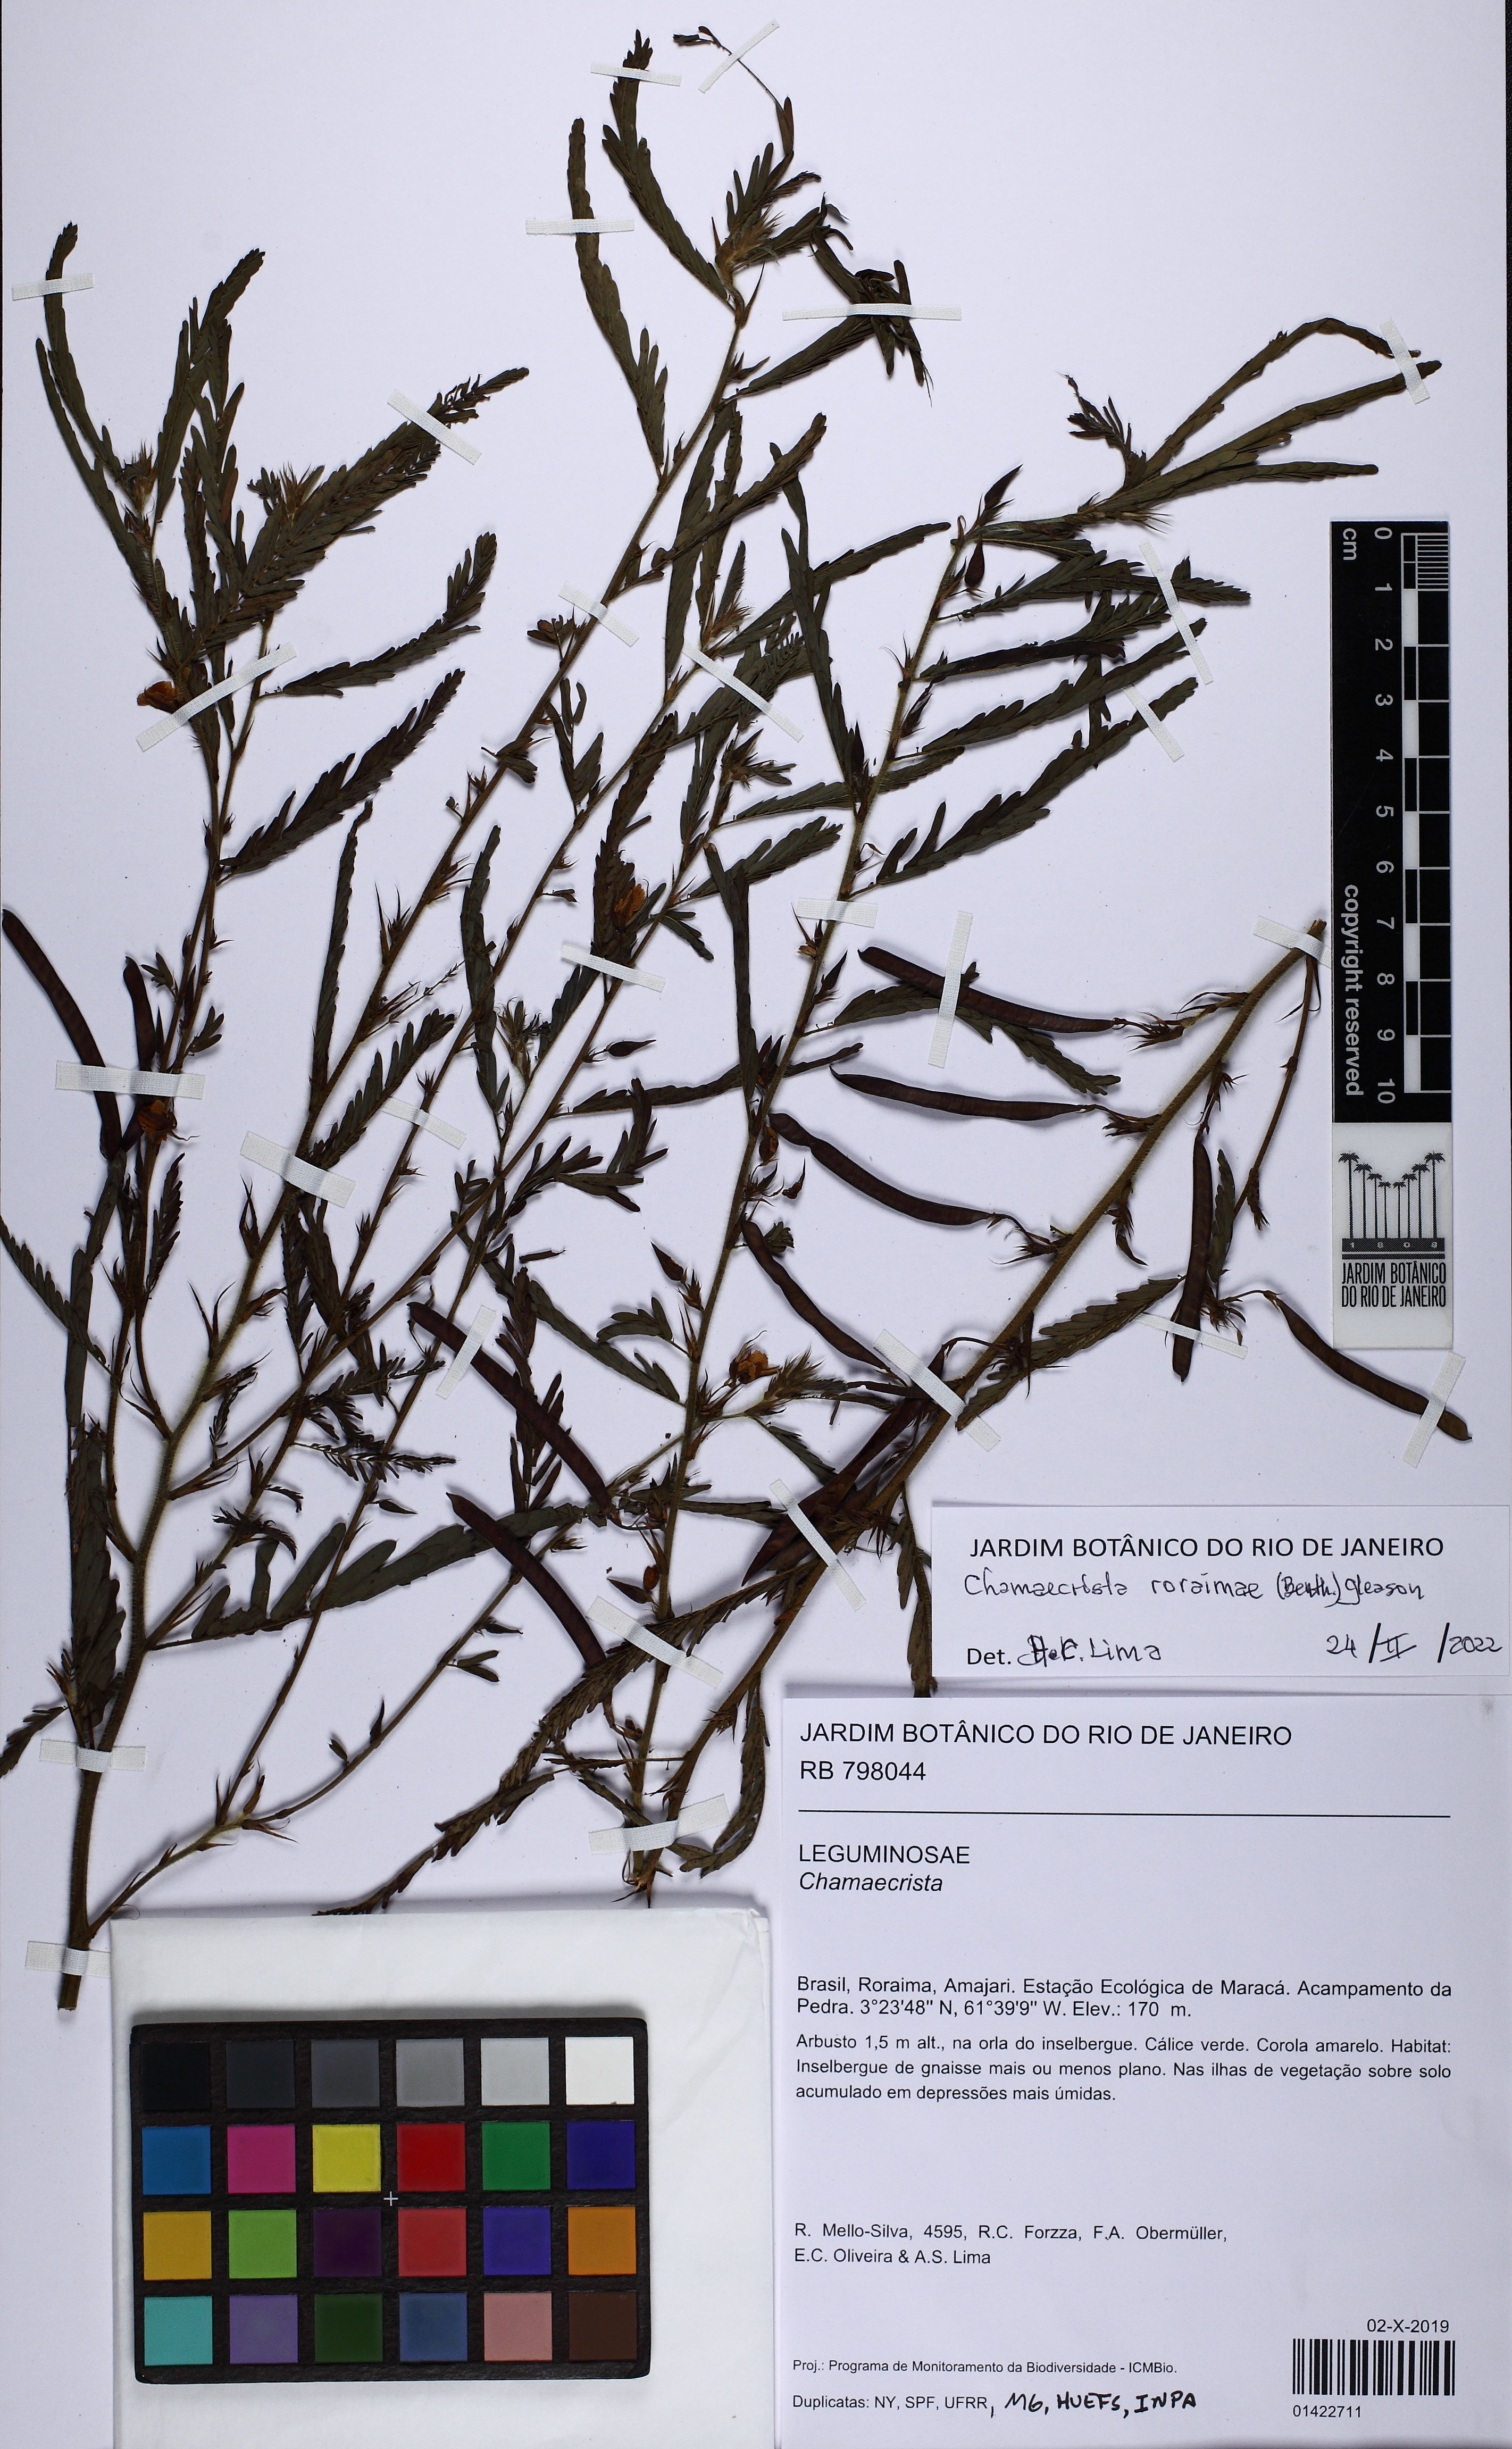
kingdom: Plantae
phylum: Tracheophyta
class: Magnoliopsida
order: Fabales
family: Fabaceae
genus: Chamaecrista
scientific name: Chamaecrista roraimae
